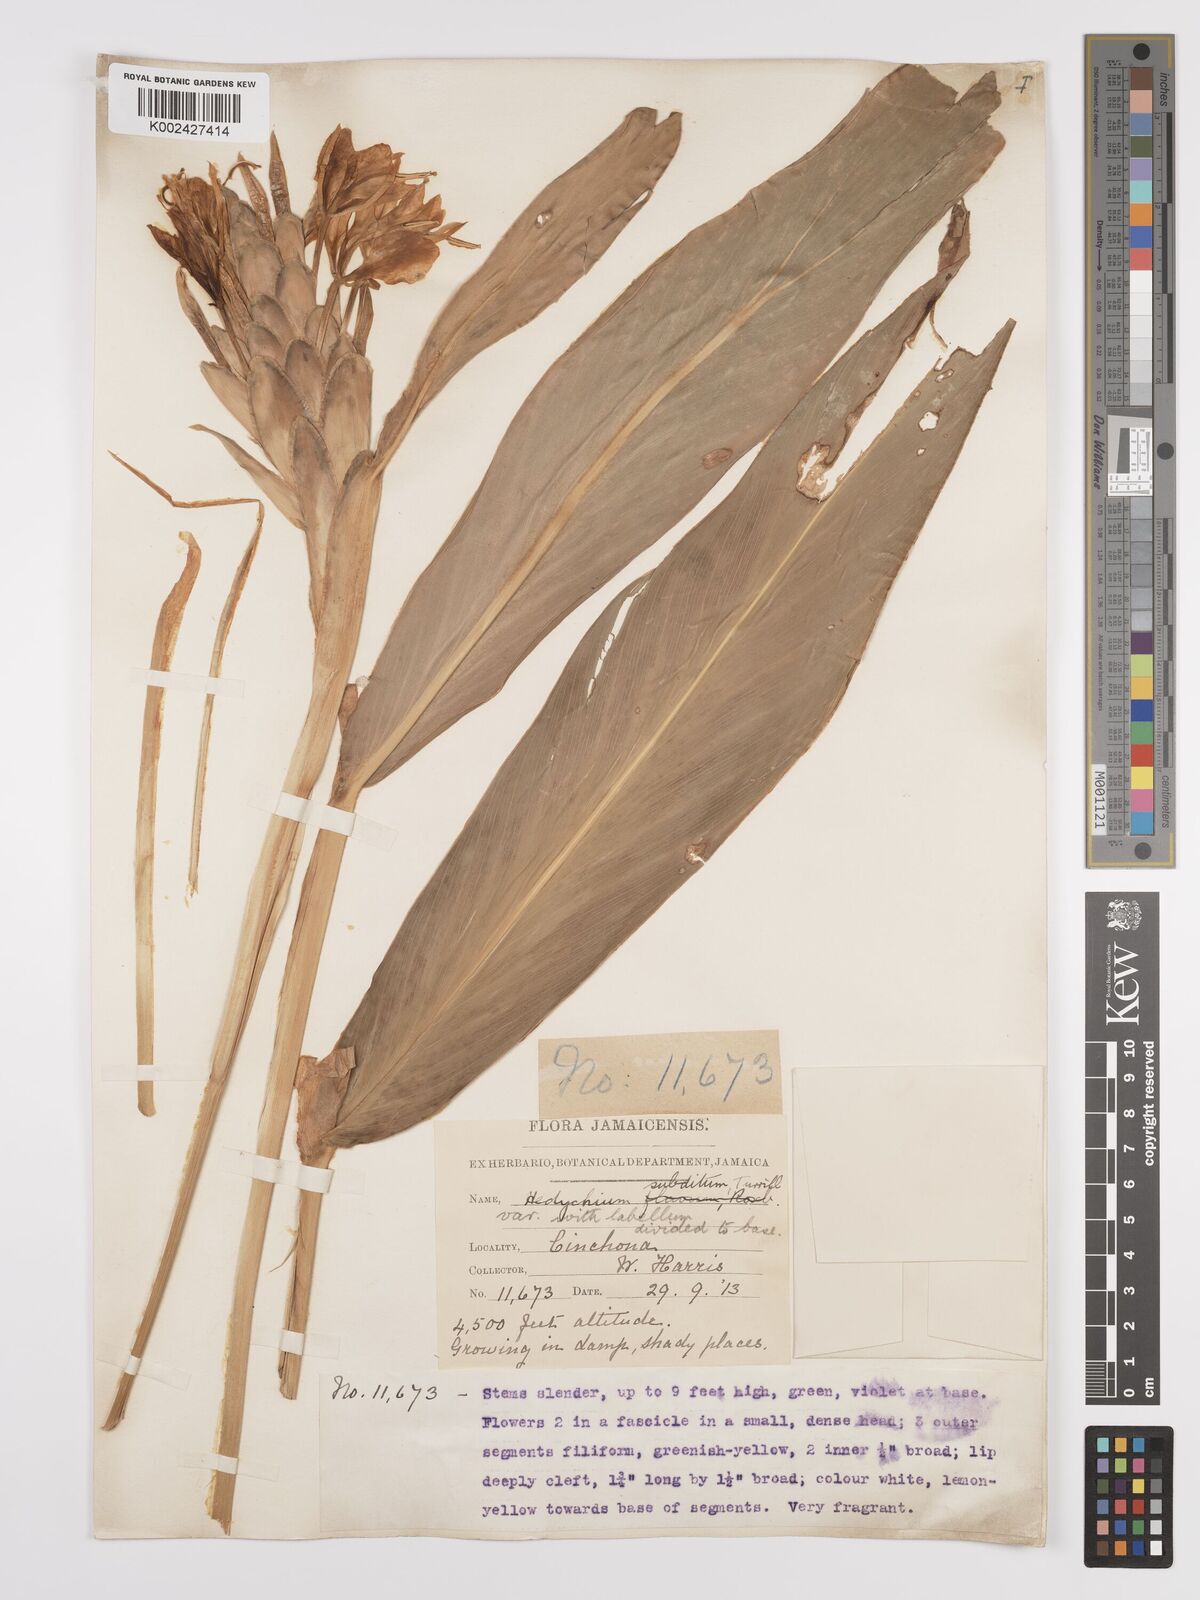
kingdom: Plantae
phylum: Tracheophyta
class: Liliopsida
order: Zingiberales
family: Zingiberaceae
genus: Hedychium
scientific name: Hedychium flavescens
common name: Yellow ginger
